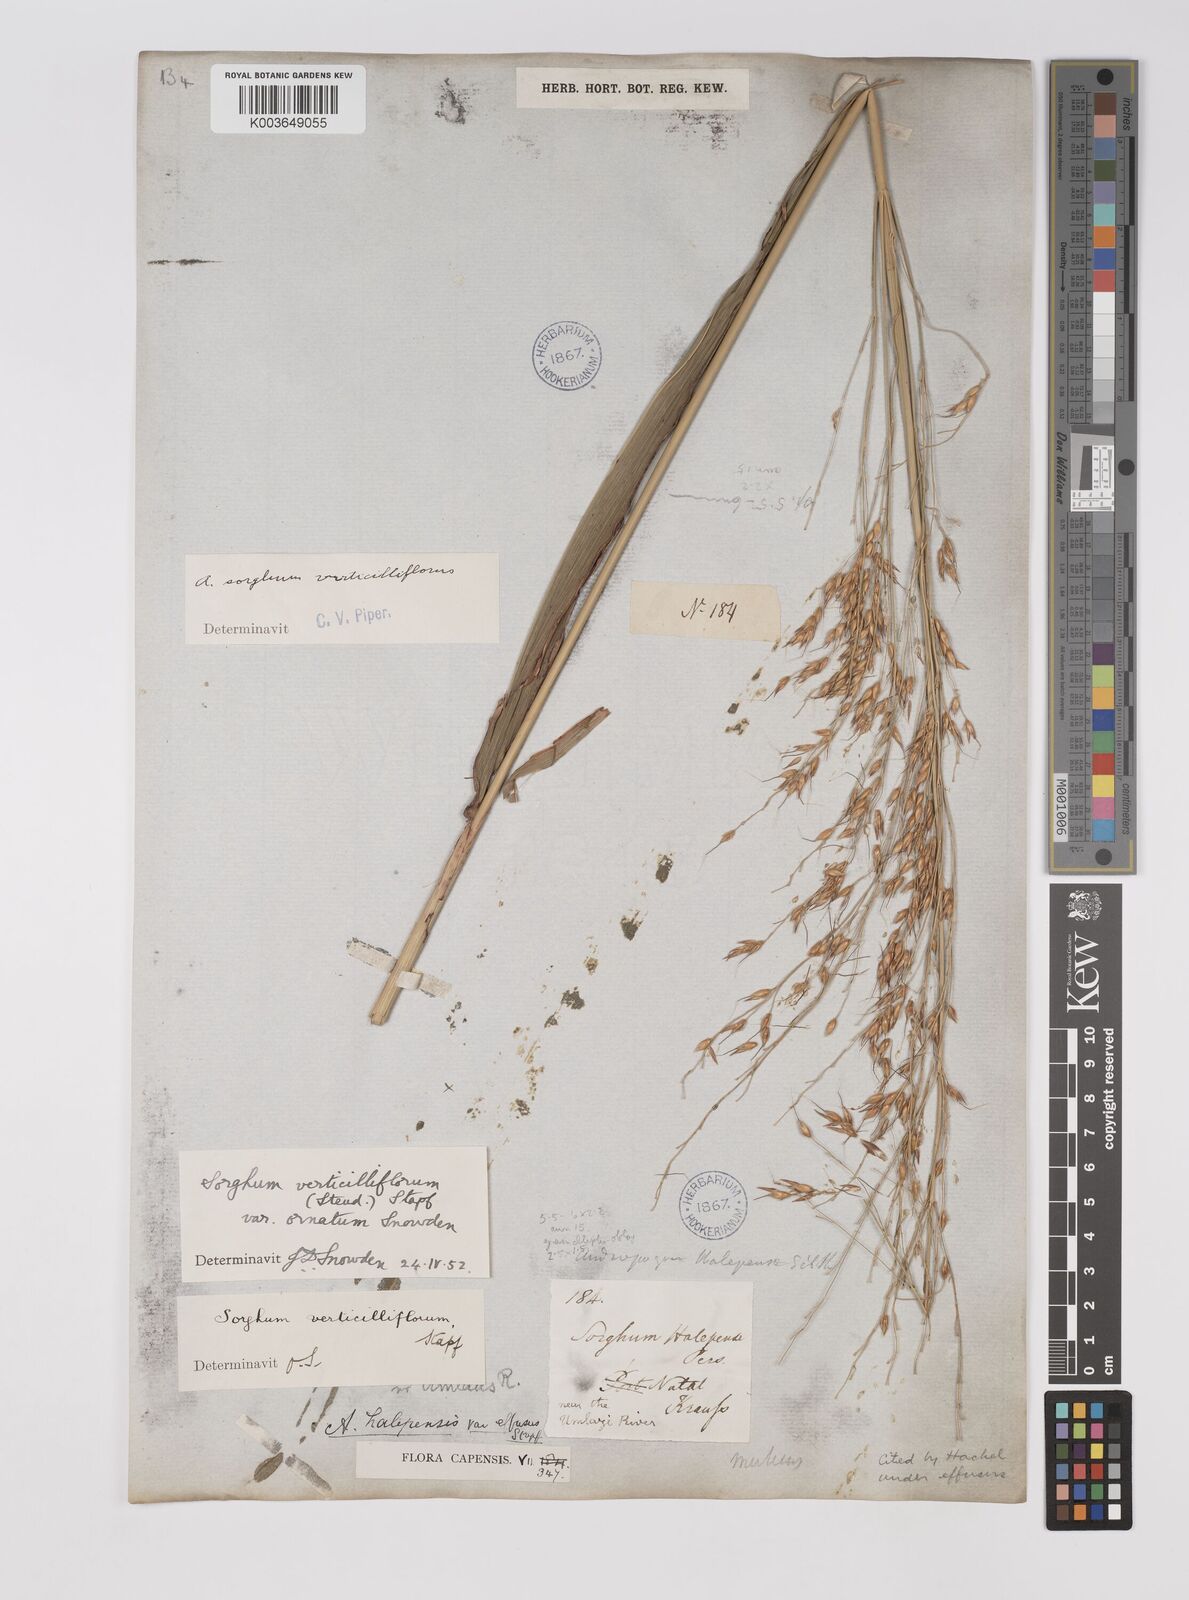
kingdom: Plantae
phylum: Tracheophyta
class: Liliopsida
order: Poales
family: Poaceae
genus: Sorghum
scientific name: Sorghum arundinaceum
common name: Sorghum
